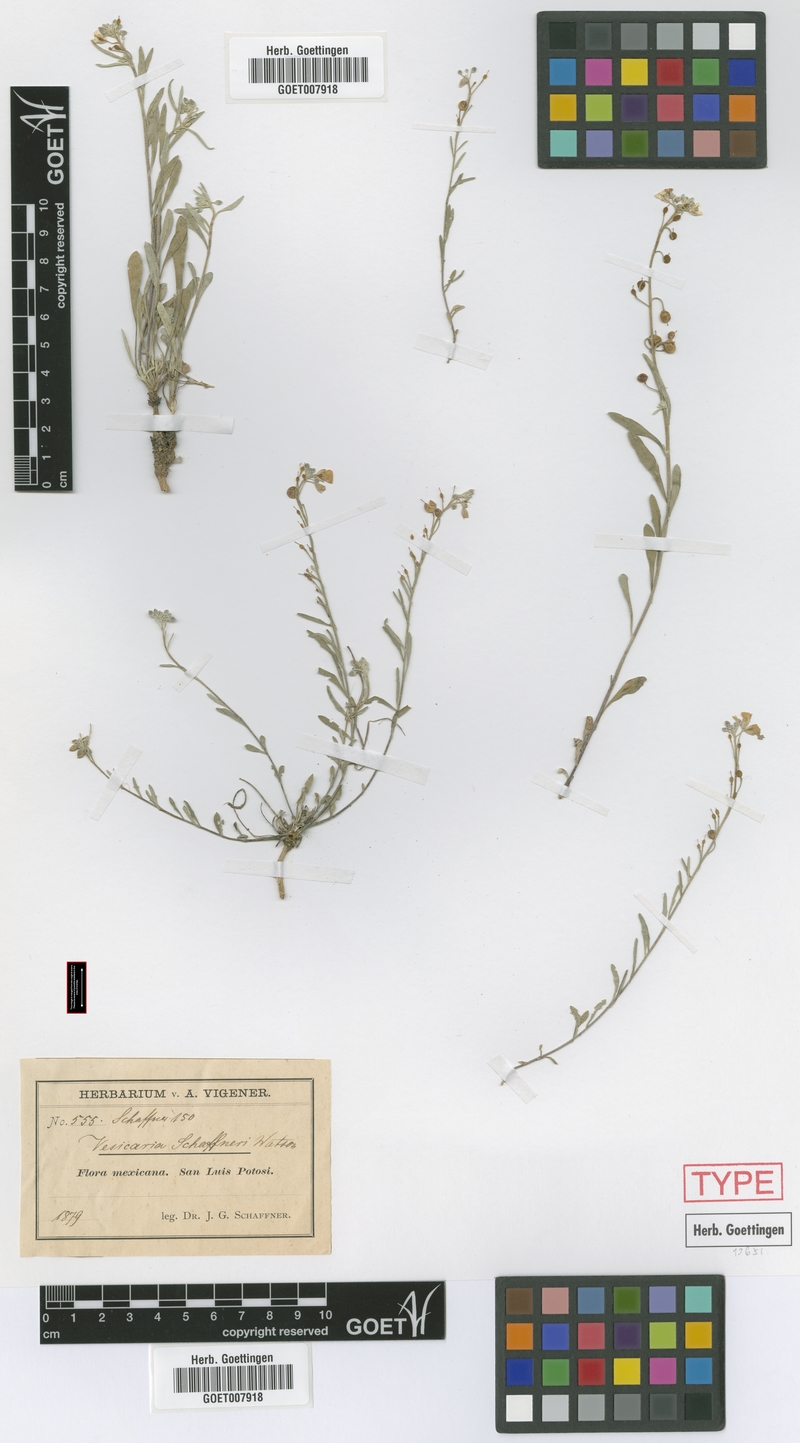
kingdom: Plantae
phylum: Tracheophyta
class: Magnoliopsida
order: Brassicales
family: Brassicaceae
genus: Physaria
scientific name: Physaria schaffneri
